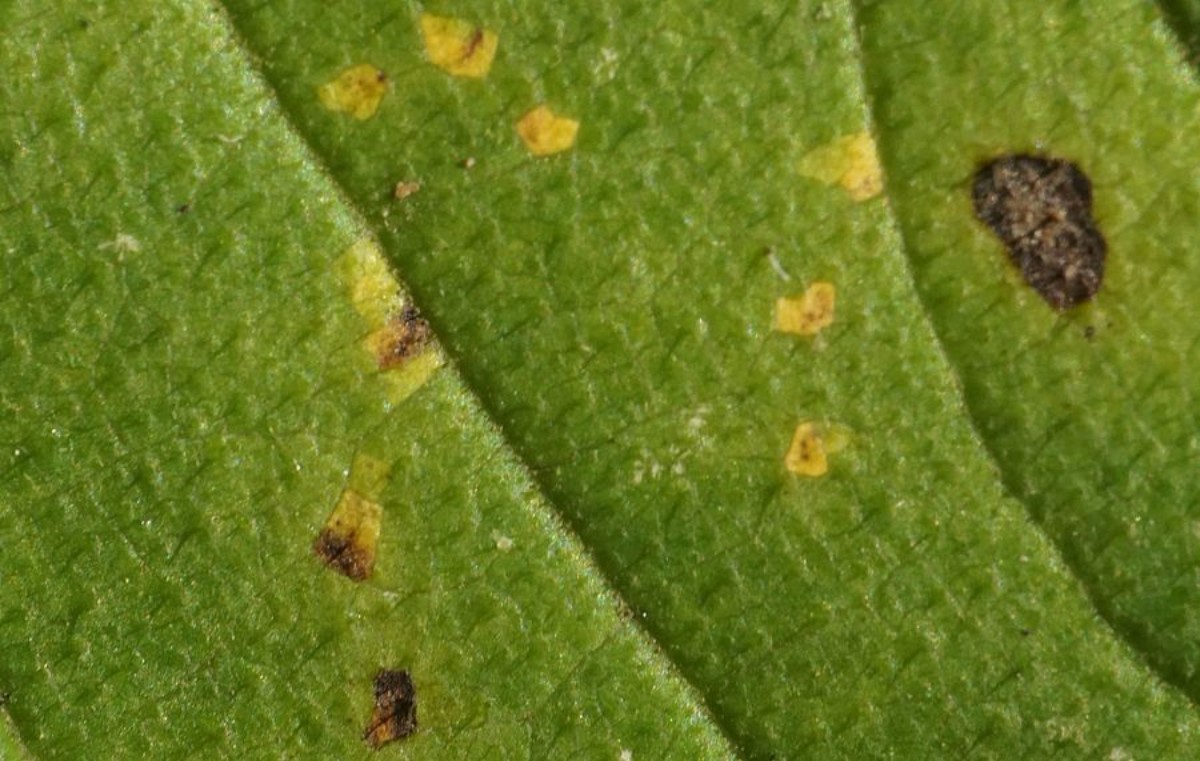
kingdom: Fungi
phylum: Ascomycota
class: Dothideomycetes
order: Mycosphaerellales
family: Mycosphaerellaceae
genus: Mycosphaerella
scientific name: Mycosphaerella ulmi
